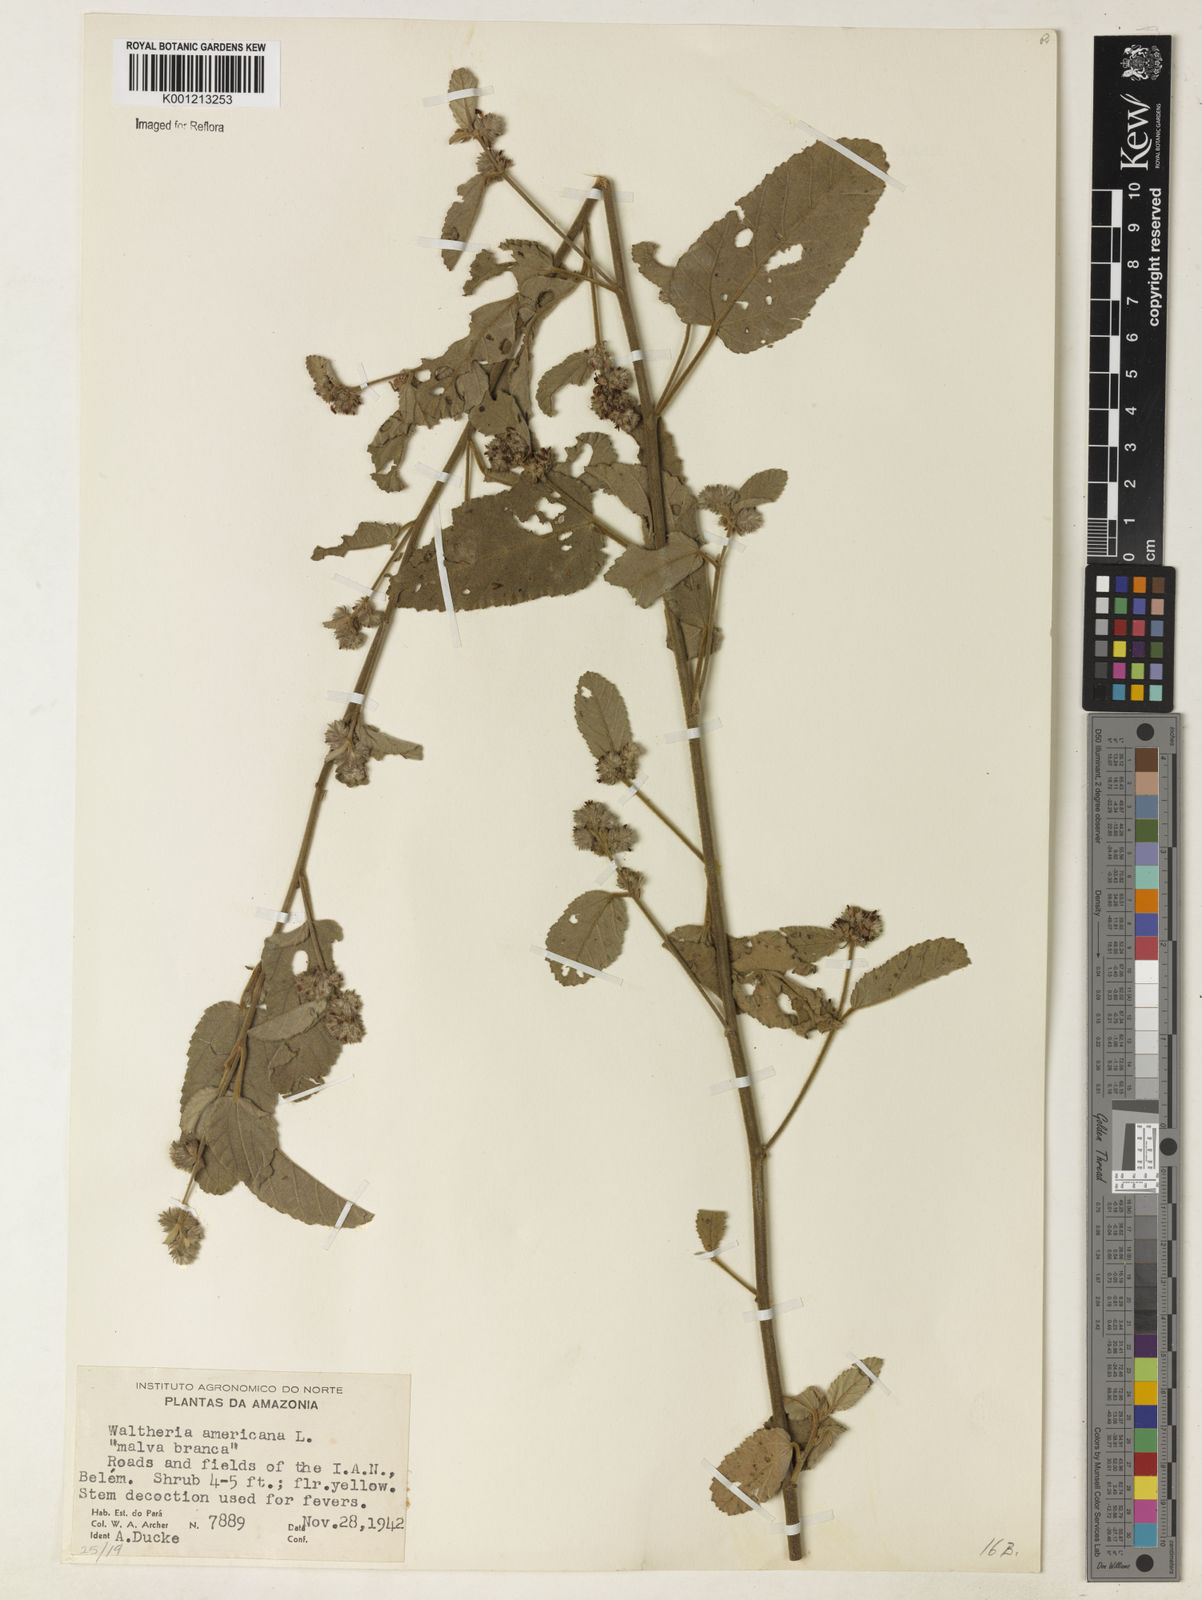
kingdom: Plantae
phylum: Tracheophyta
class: Magnoliopsida
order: Malvales
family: Malvaceae
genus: Waltheria
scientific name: Waltheria indica
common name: Leather-coat
